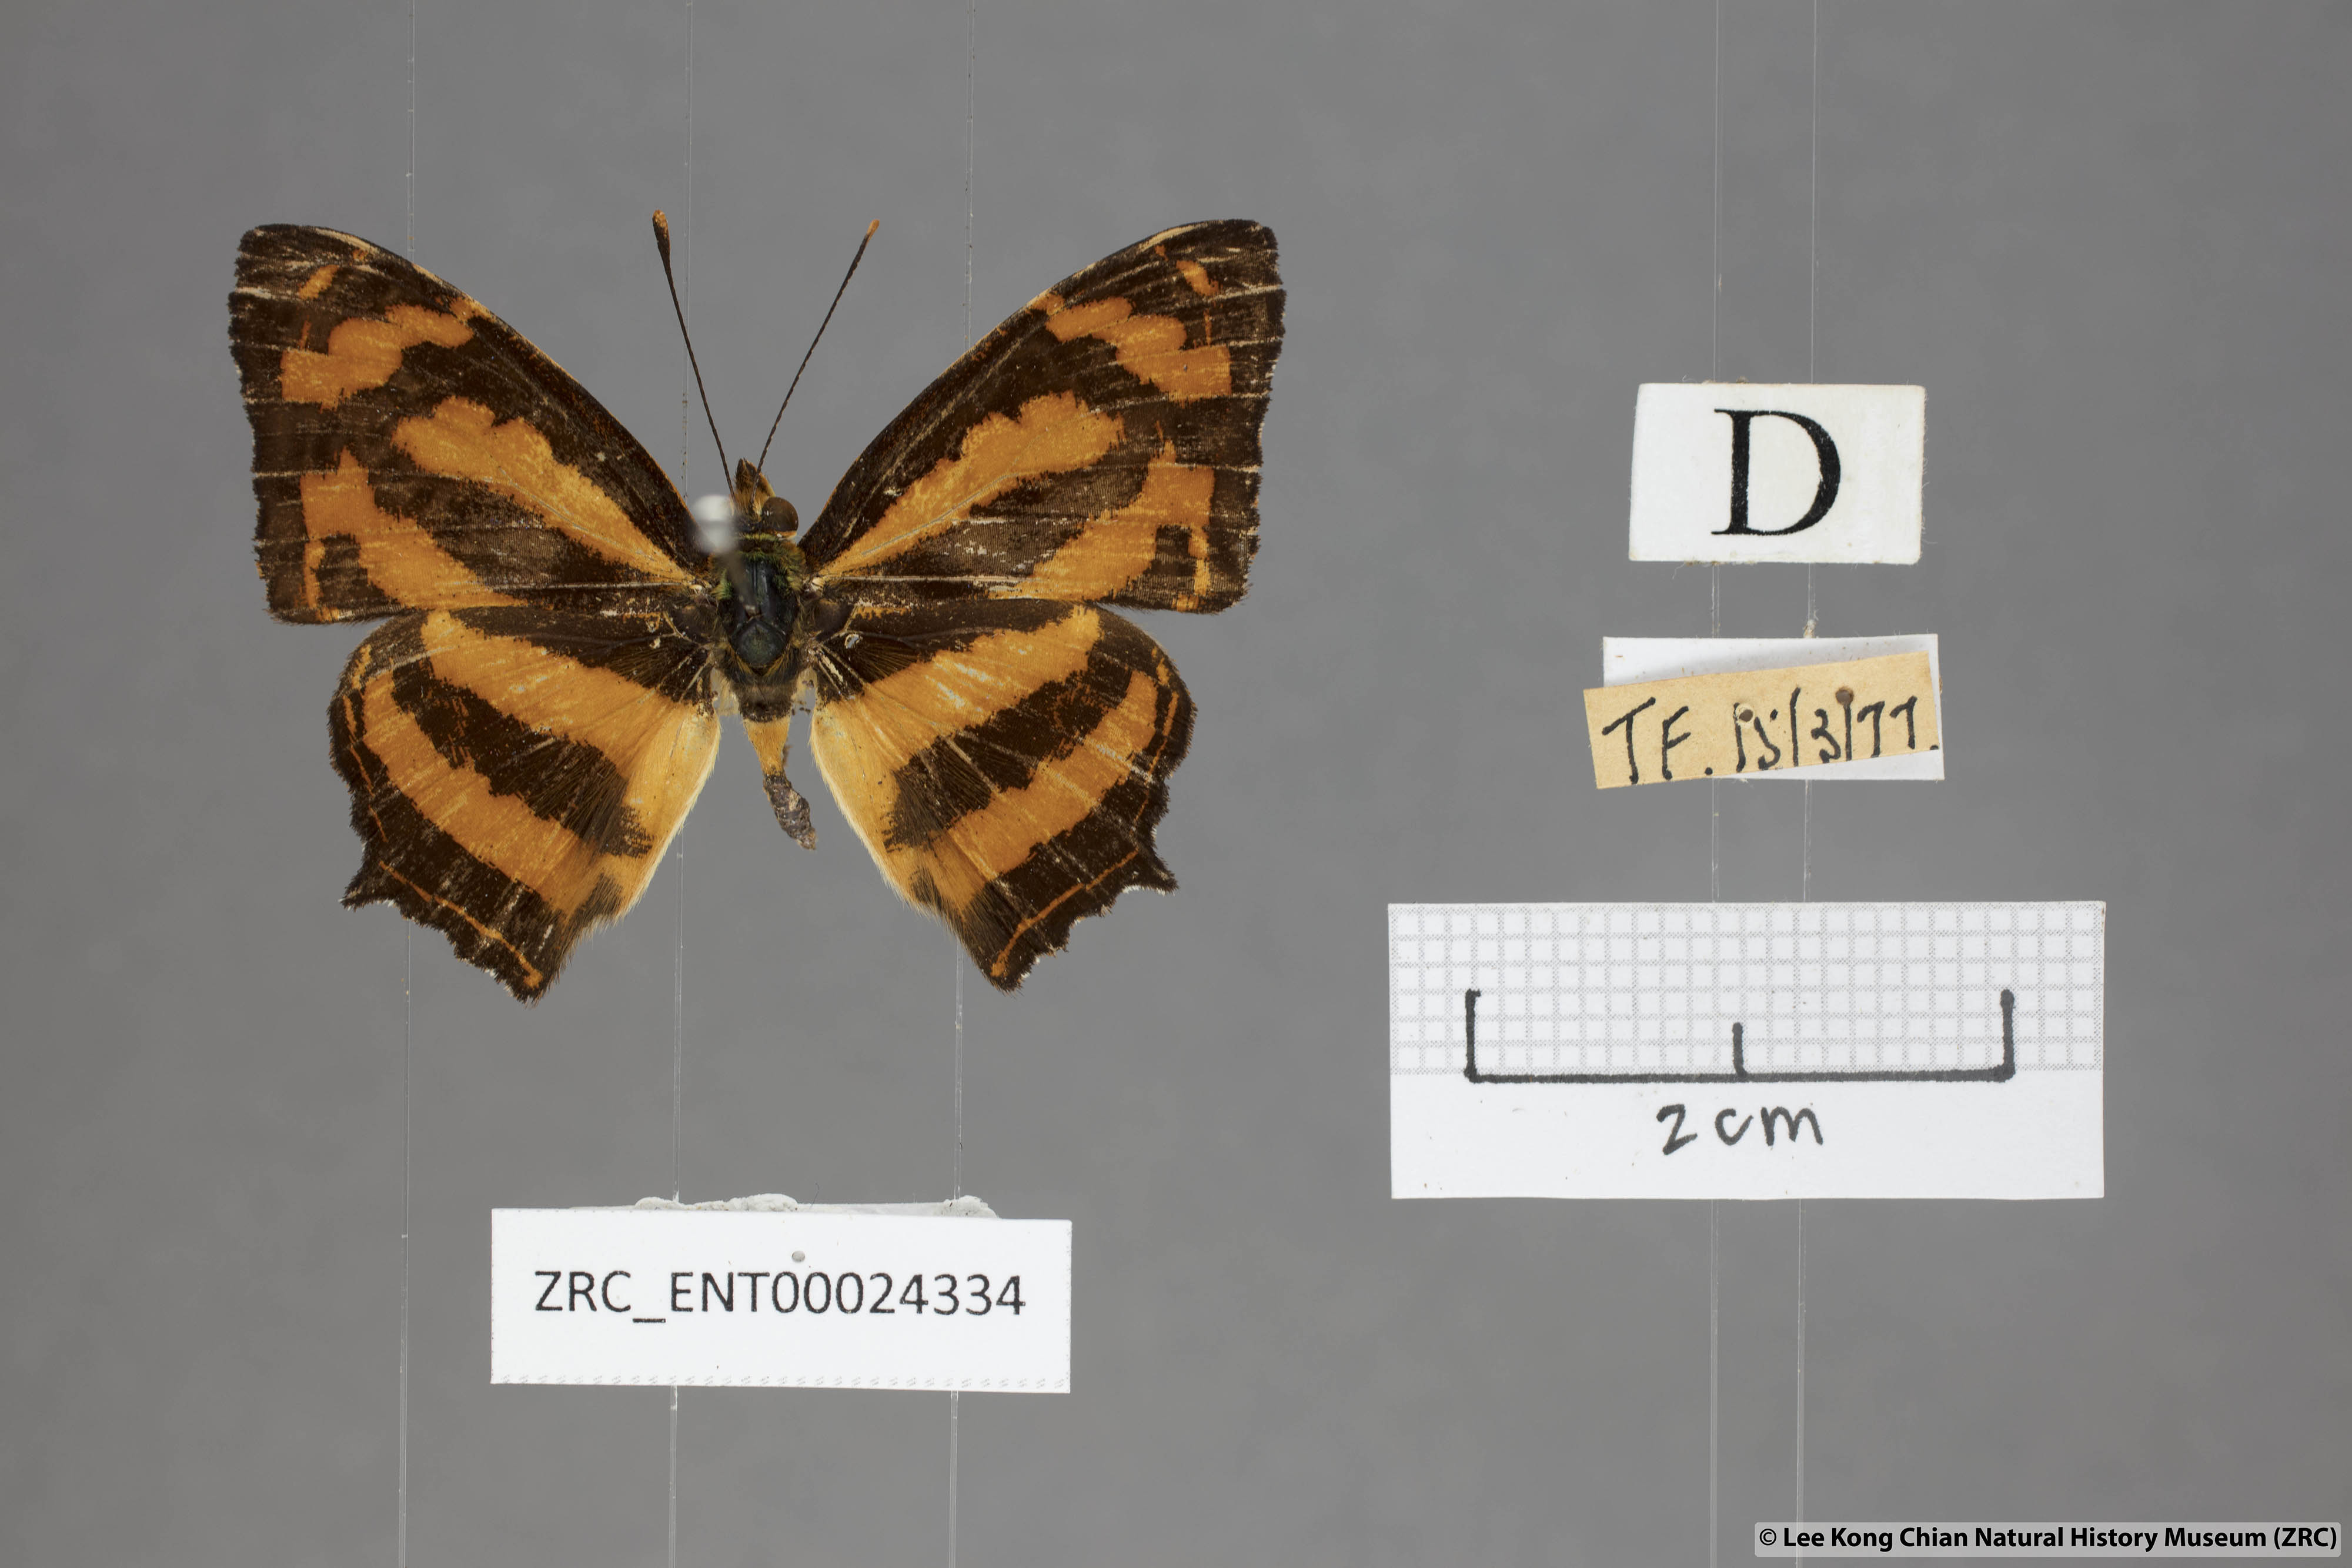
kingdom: Animalia
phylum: Arthropoda
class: Insecta
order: Lepidoptera
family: Nymphalidae
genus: Symbrenthia
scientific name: Symbrenthia hippoclus
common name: Common jester
